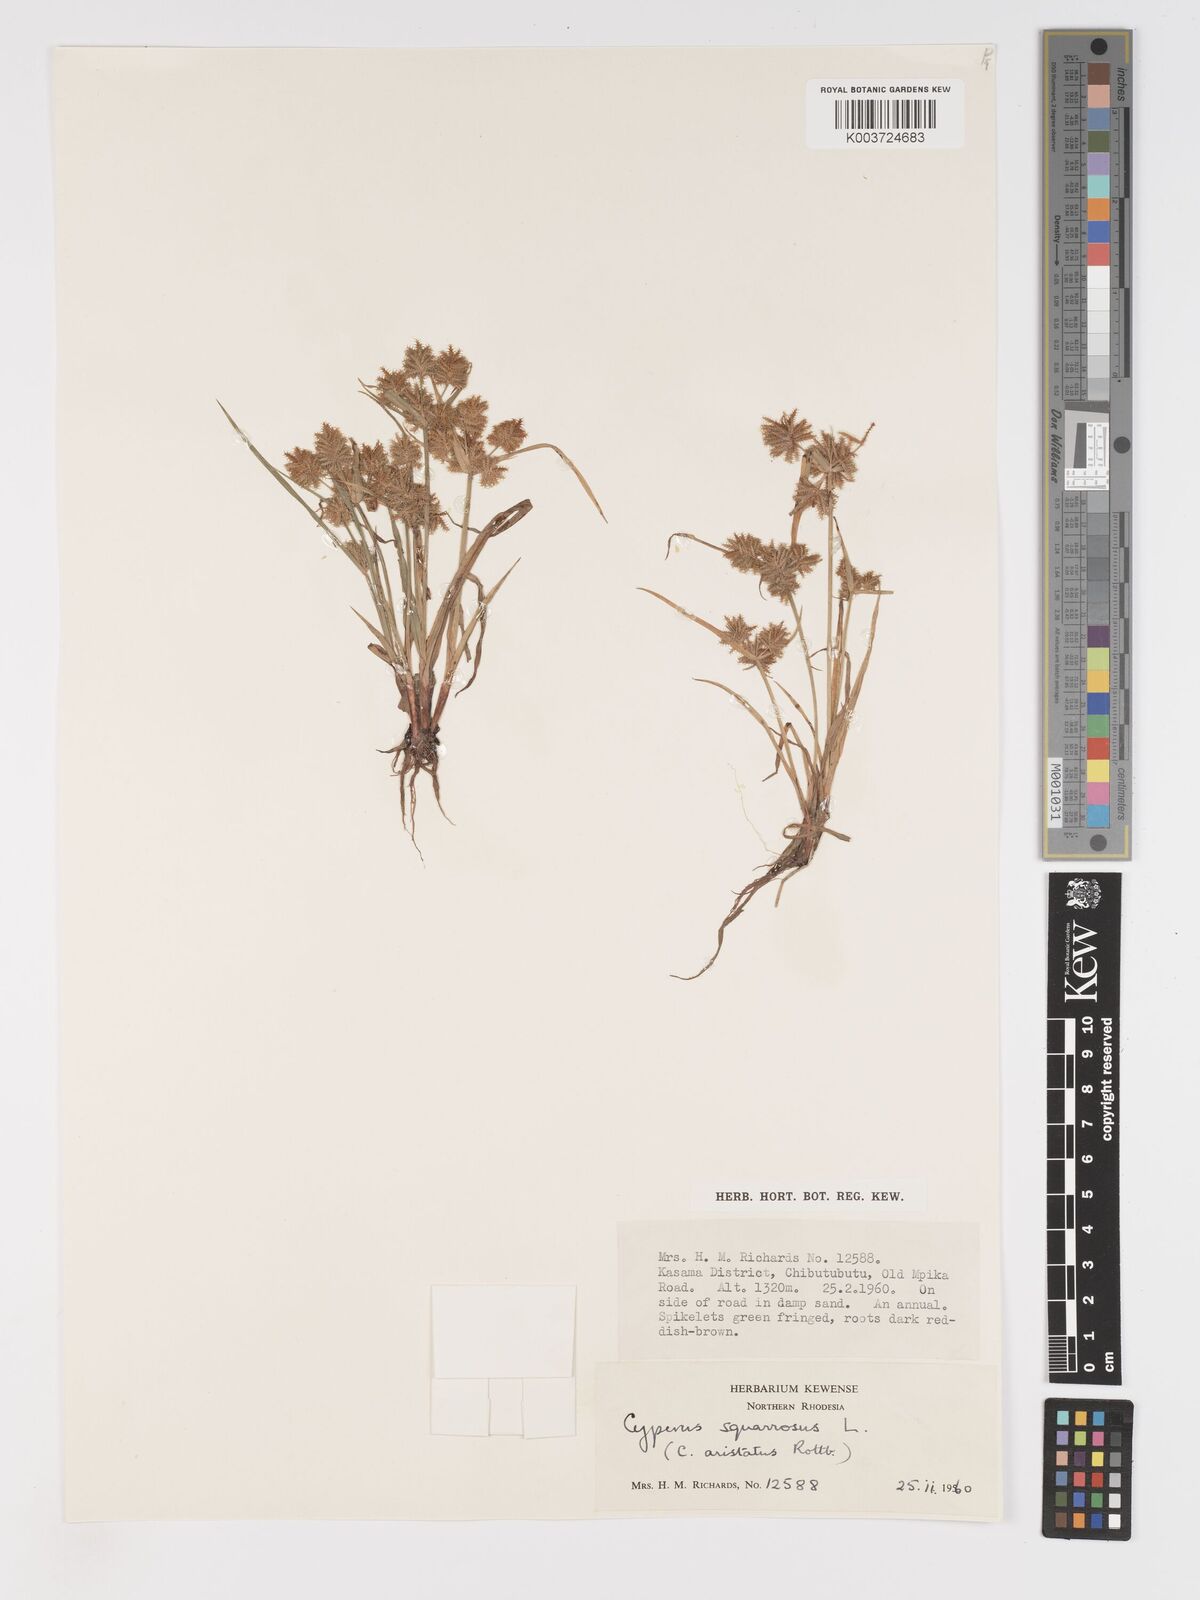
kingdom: Plantae
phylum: Tracheophyta
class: Liliopsida
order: Poales
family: Cyperaceae
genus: Cyperus
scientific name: Cyperus squarrosus
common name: Awned cyperus
